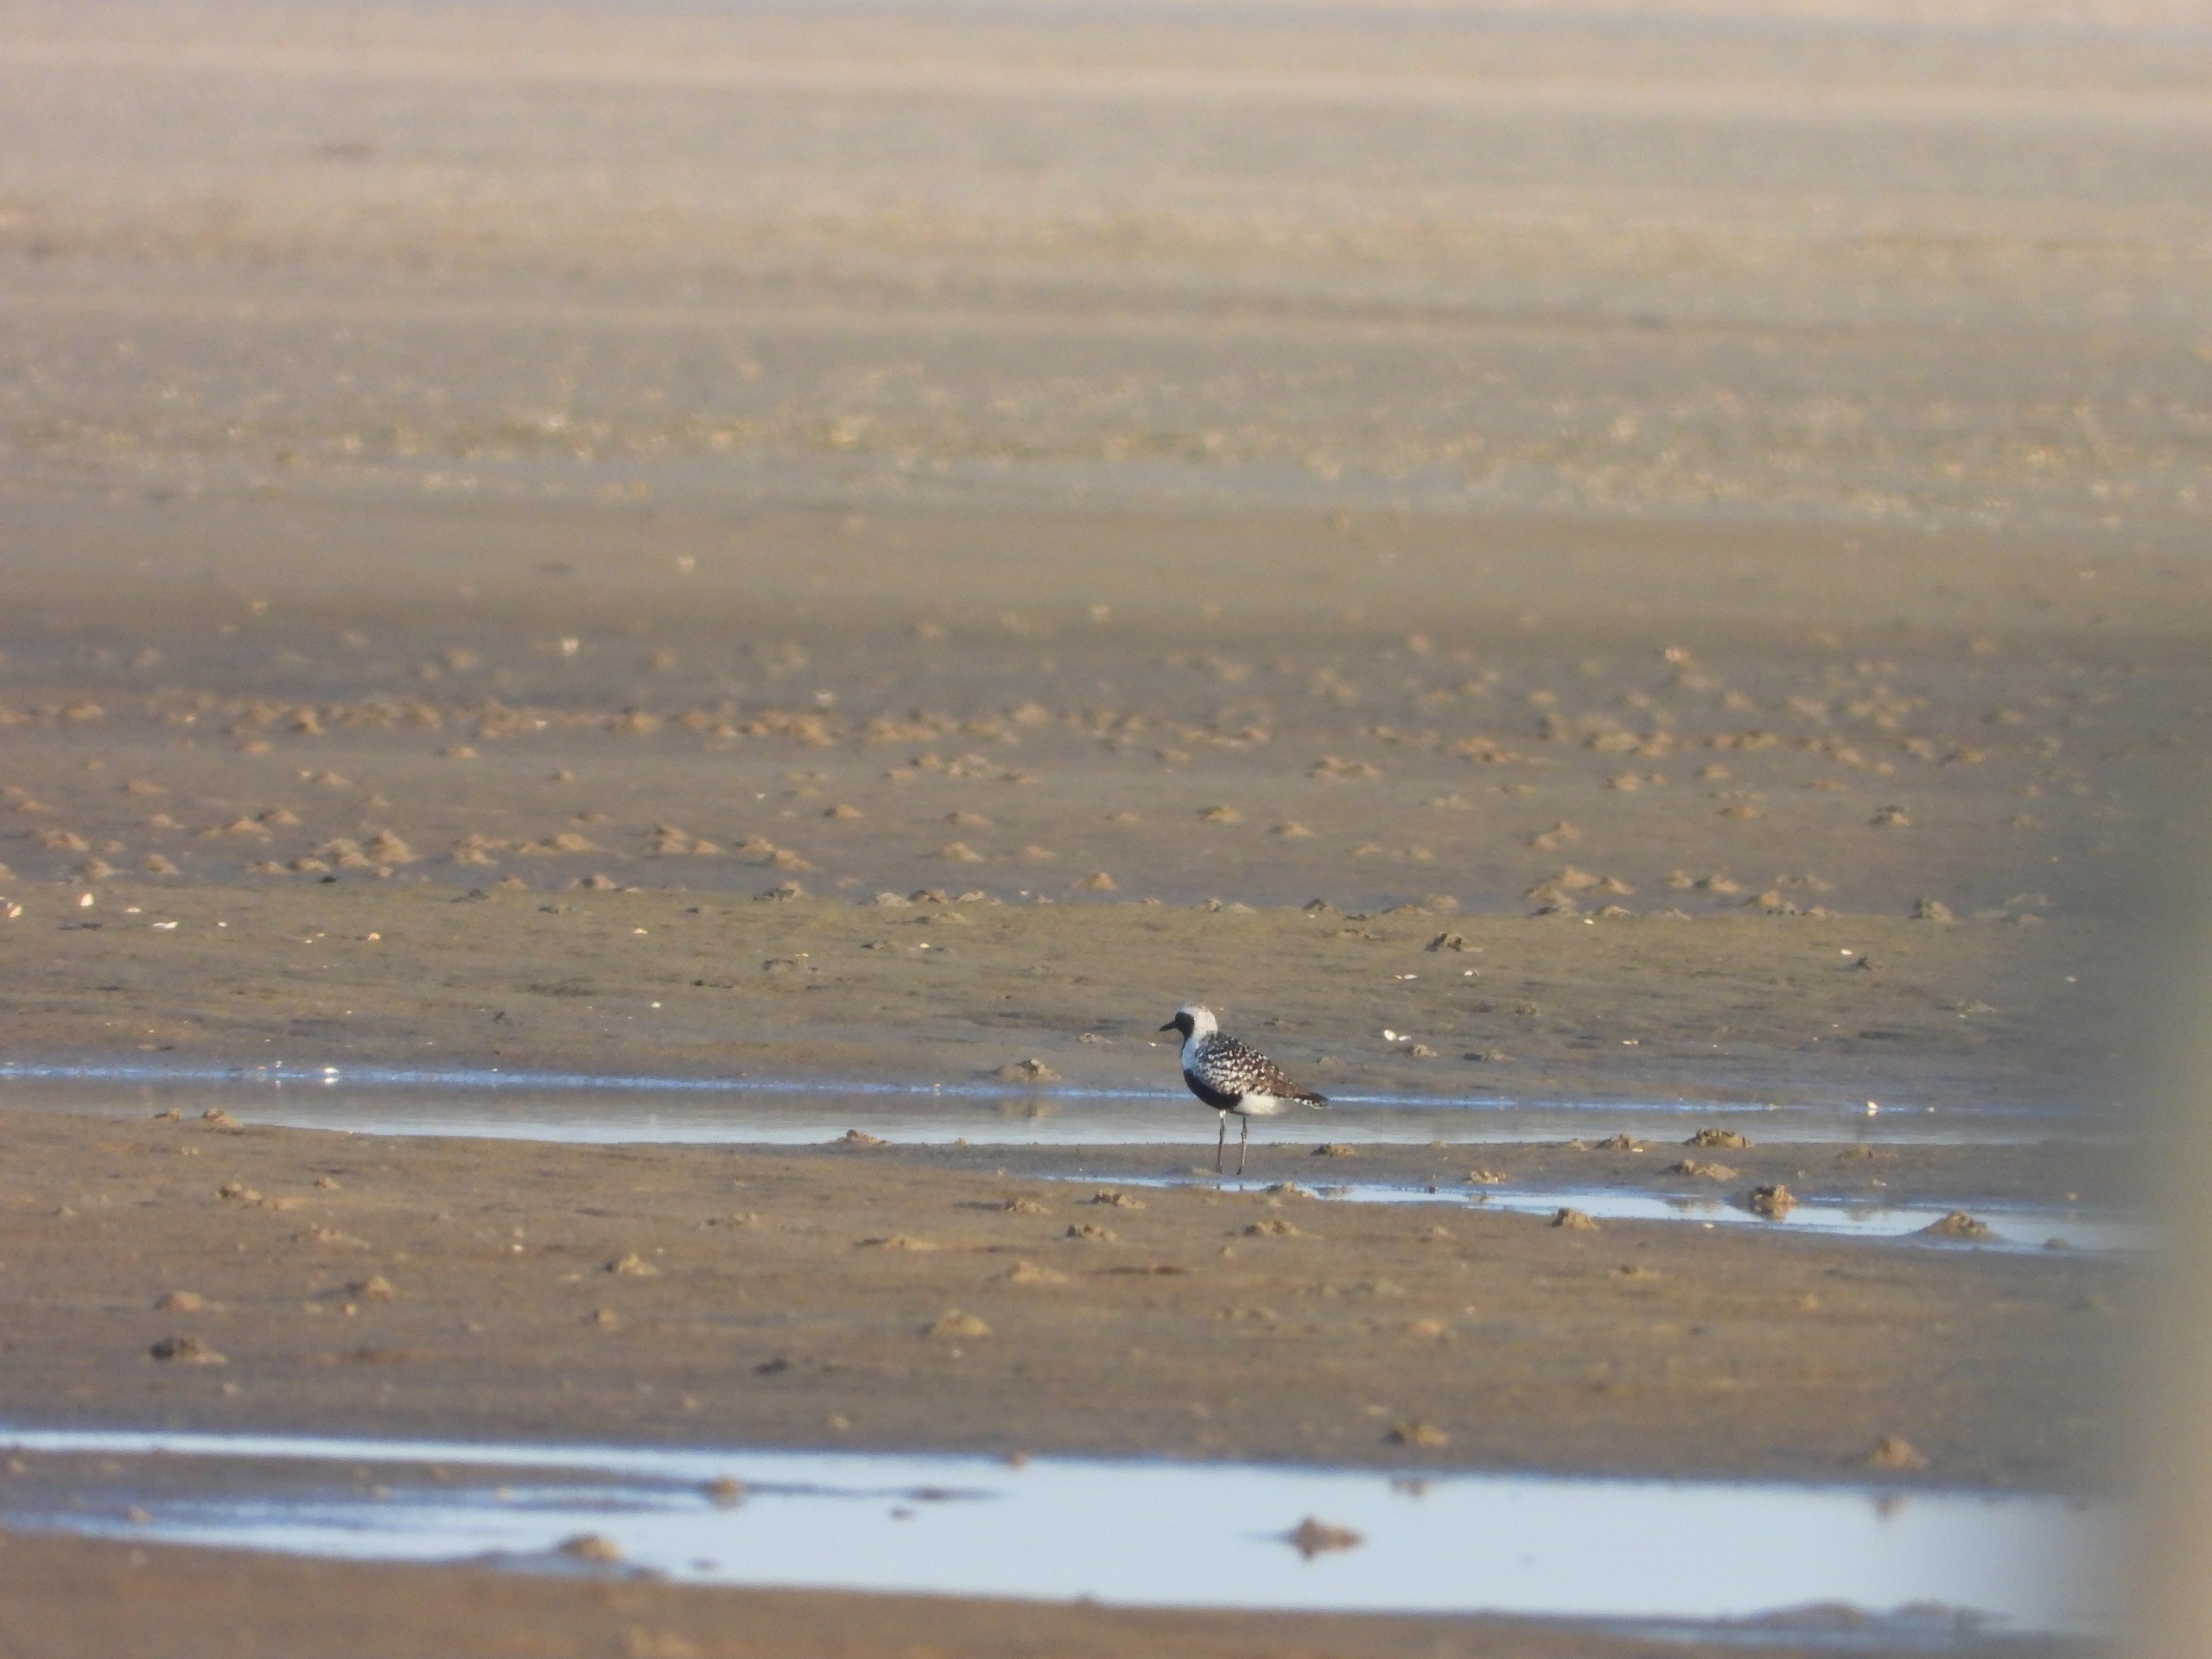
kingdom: Animalia
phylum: Chordata
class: Aves
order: Charadriiformes
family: Charadriidae
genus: Pluvialis
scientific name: Pluvialis squatarola
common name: Strandhjejle
